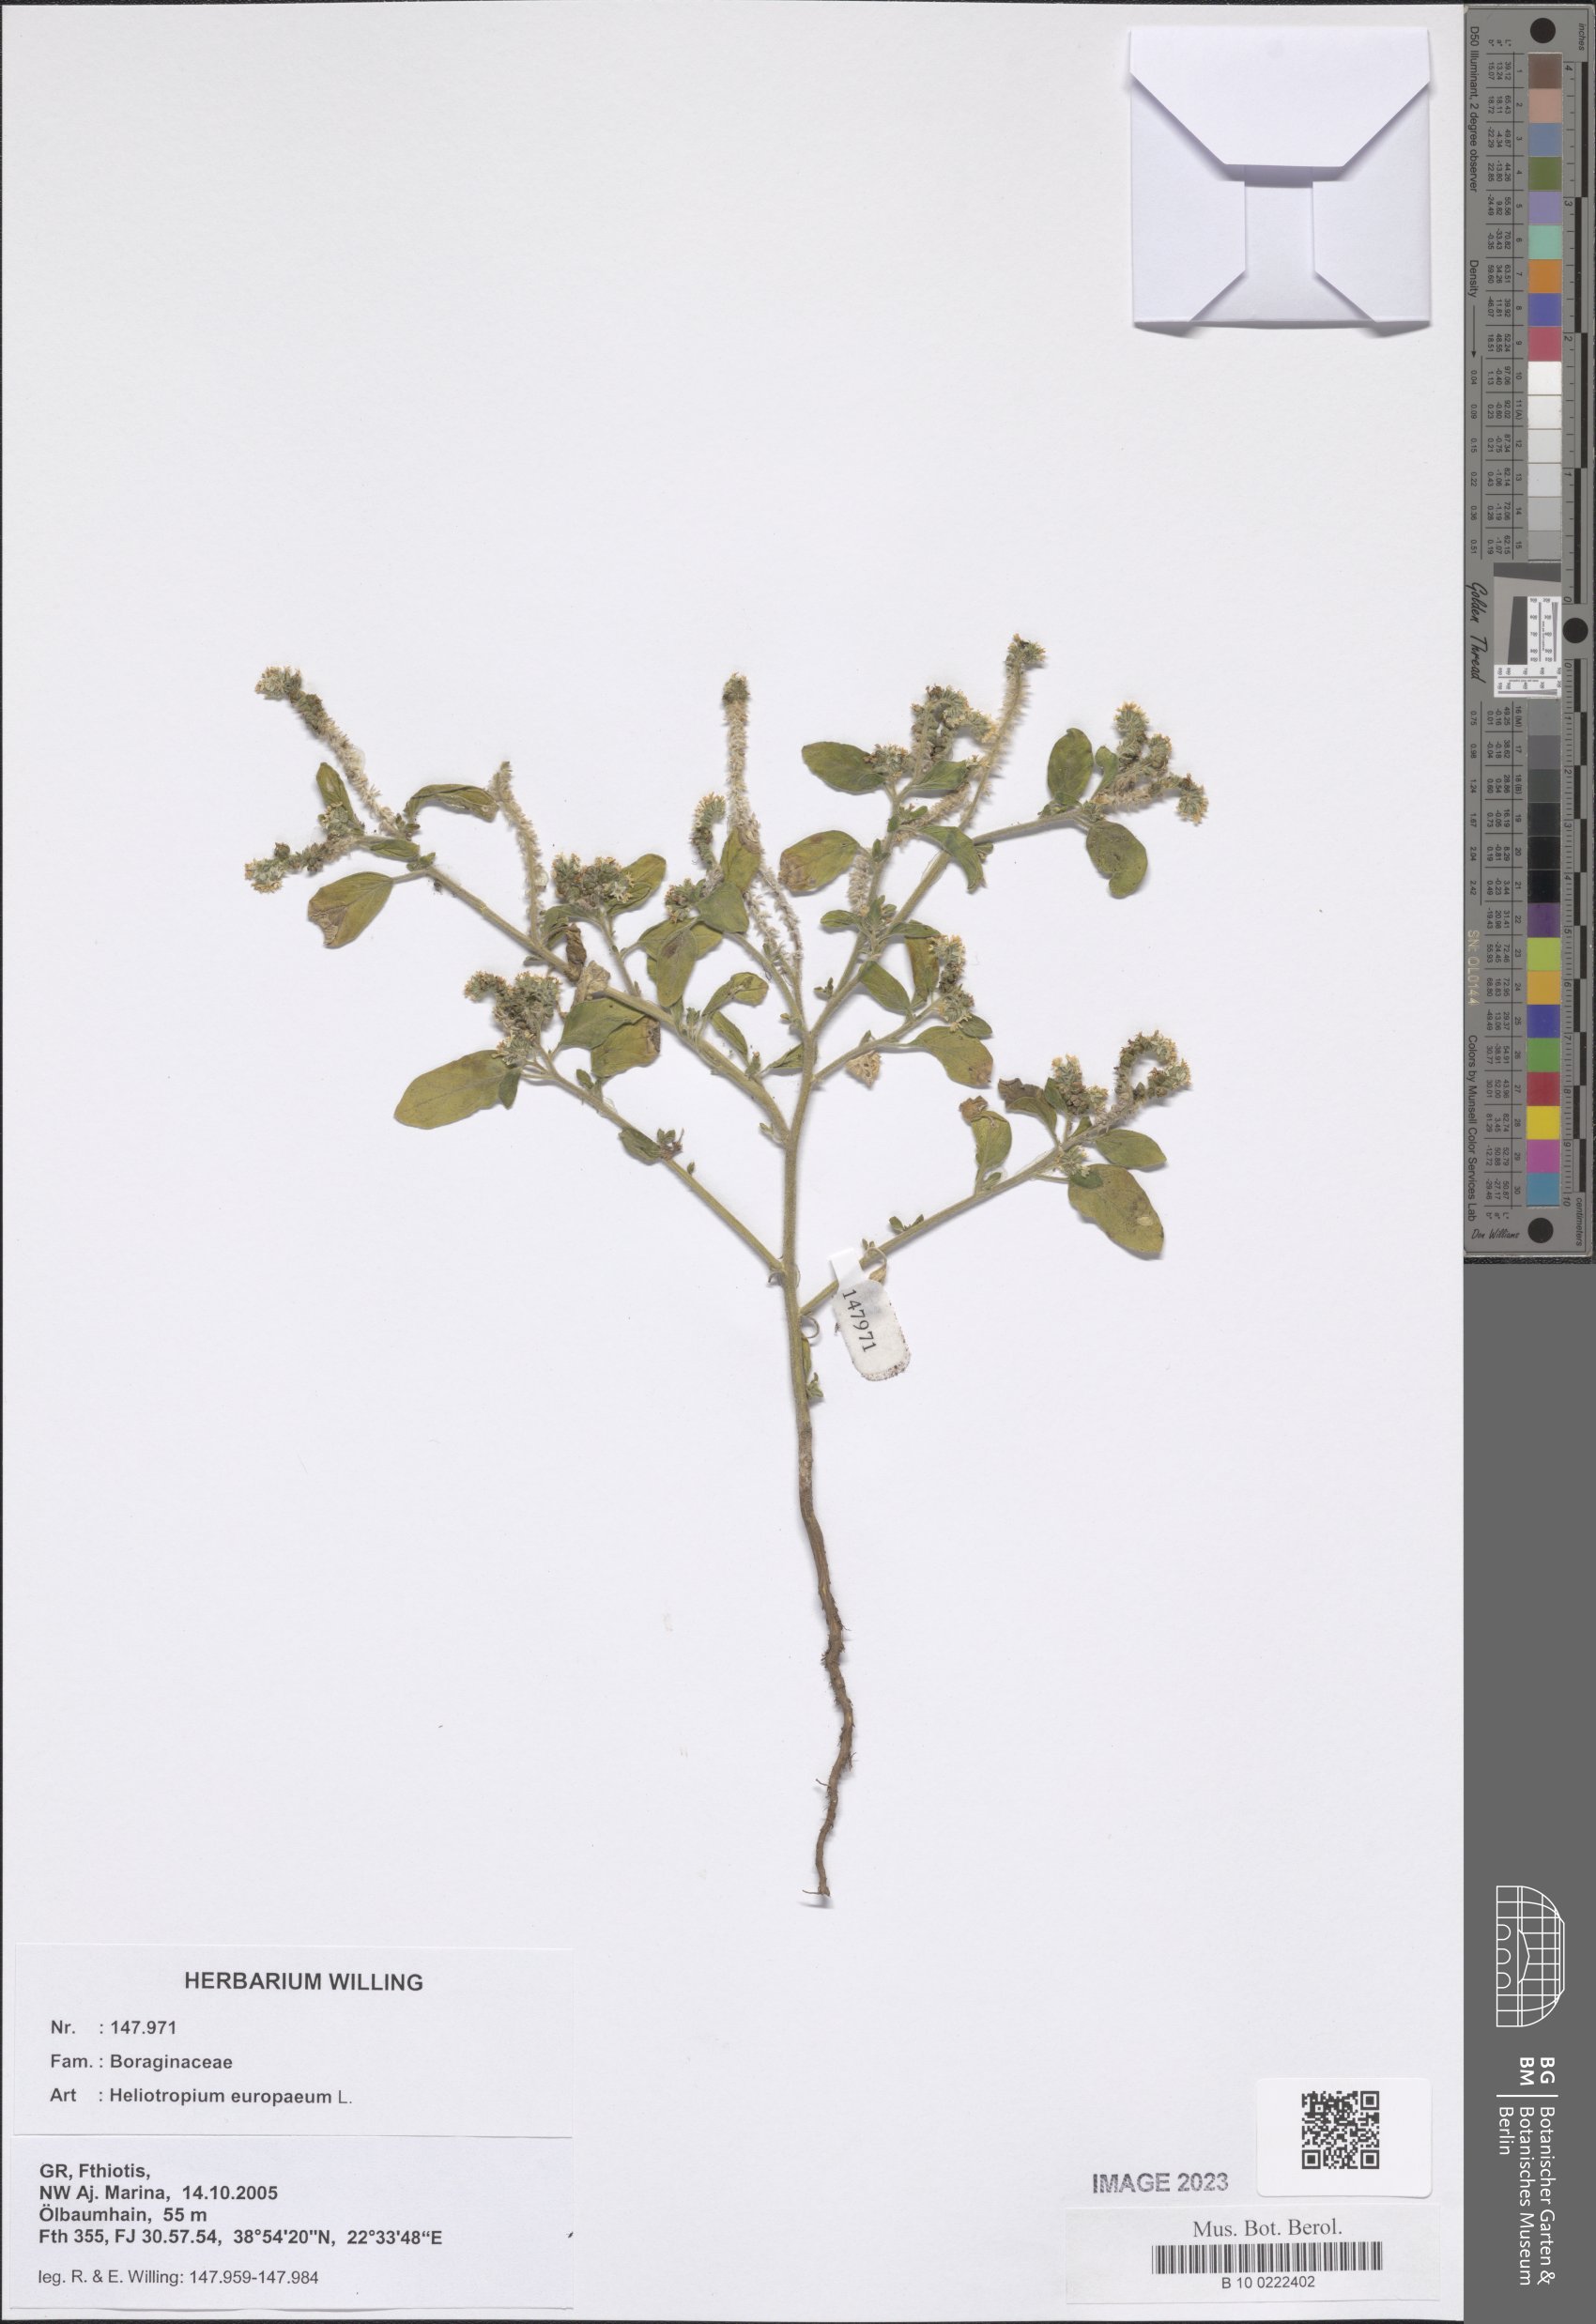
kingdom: Plantae
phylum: Tracheophyta
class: Magnoliopsida
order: Boraginales
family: Heliotropiaceae
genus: Heliotropium
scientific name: Heliotropium europaeum
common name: European heliotrope
